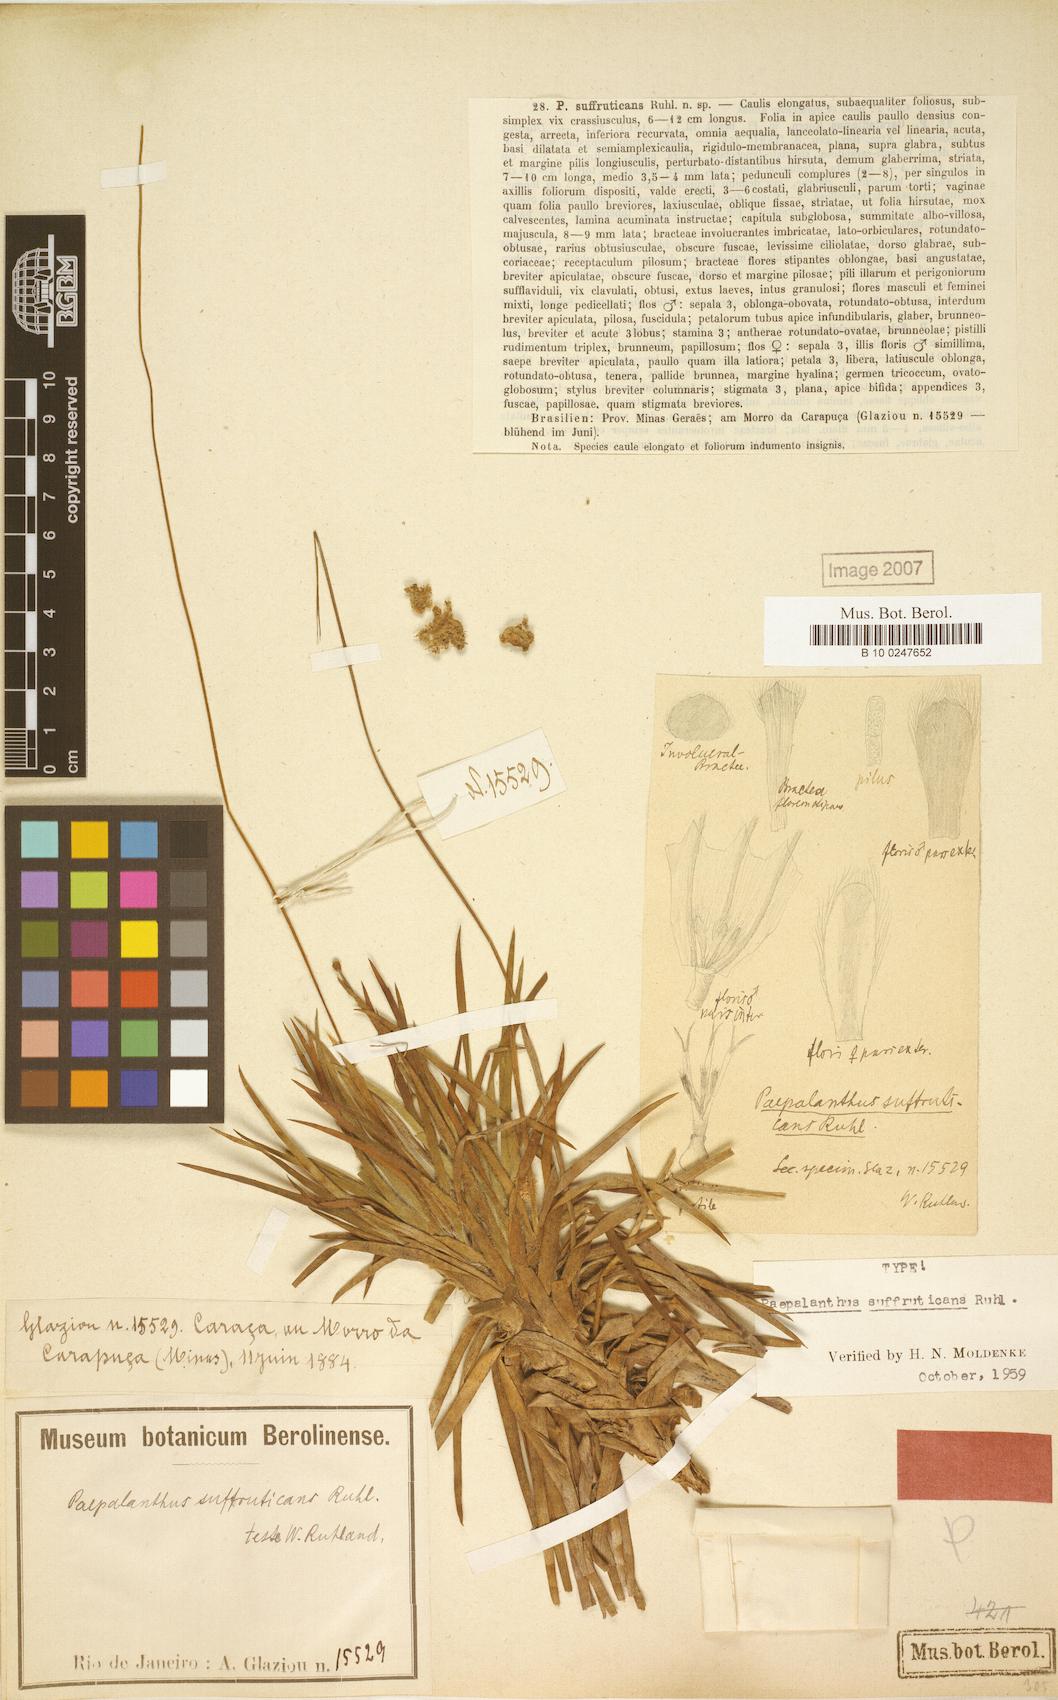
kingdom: Plantae
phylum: Tracheophyta
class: Liliopsida
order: Poales
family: Eriocaulaceae
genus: Paepalanthus
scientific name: Paepalanthus suffruticans
